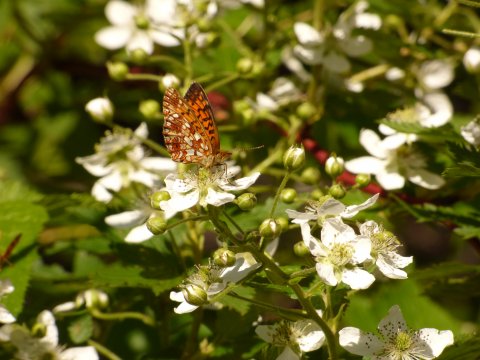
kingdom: Animalia
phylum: Arthropoda
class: Insecta
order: Lepidoptera
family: Nymphalidae
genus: Boloria
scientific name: Boloria selene
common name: Silver-bordered Fritillary
